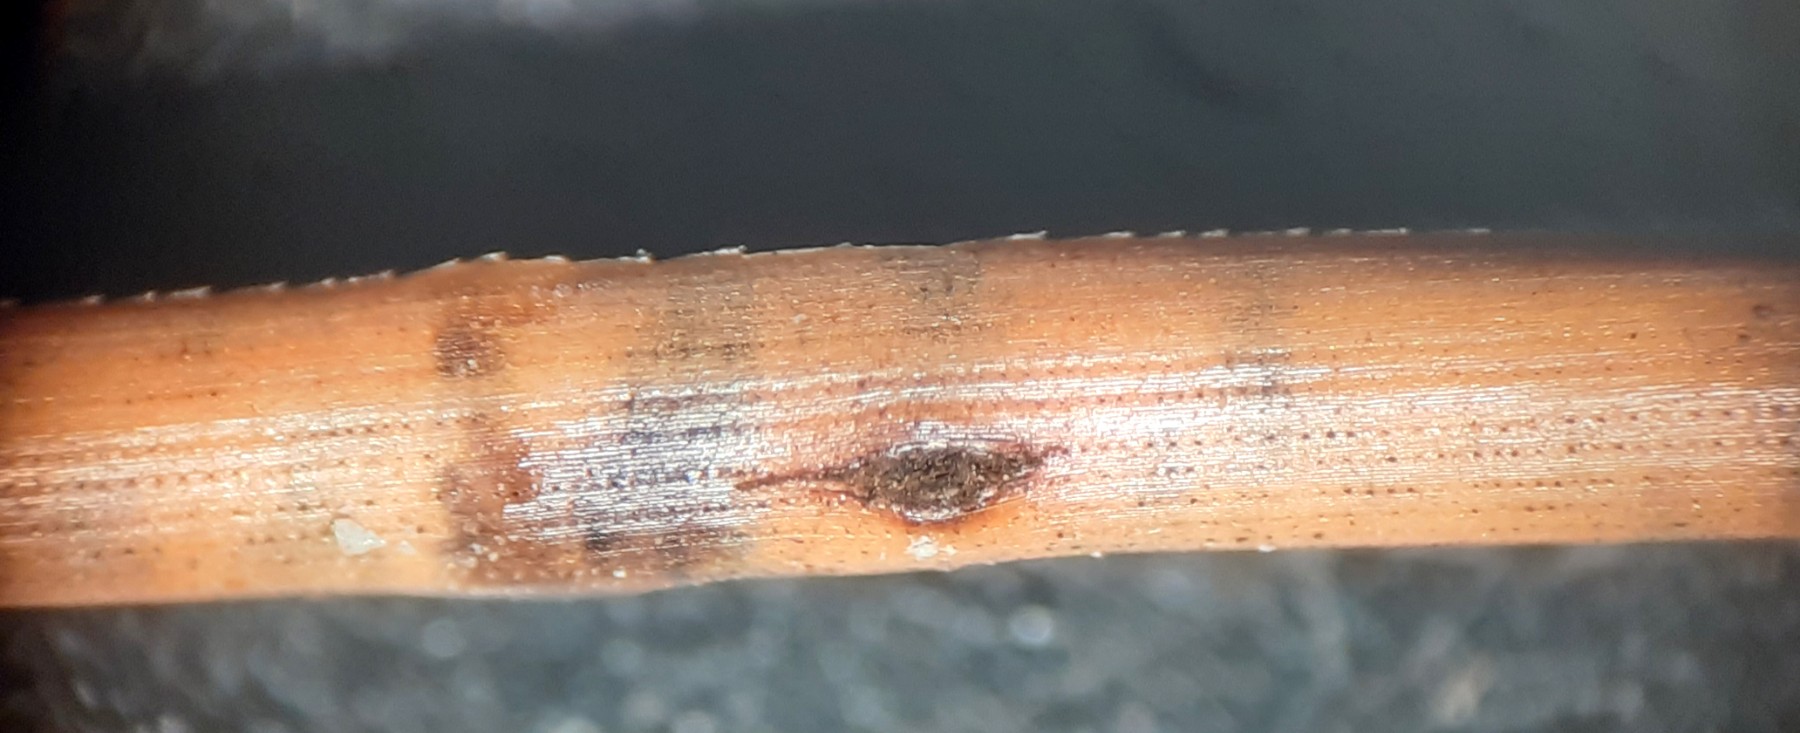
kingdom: Fungi
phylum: Ascomycota
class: Leotiomycetes
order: Rhytismatales
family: Rhytismataceae
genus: Lophodermium
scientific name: Lophodermium
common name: fureplet
